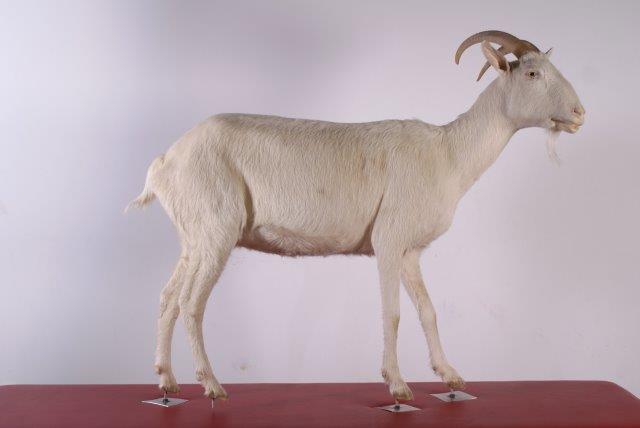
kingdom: Animalia
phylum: Chordata
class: Mammalia
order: Artiodactyla
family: Bovidae
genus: Capra
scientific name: Capra hircus
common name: Goat
